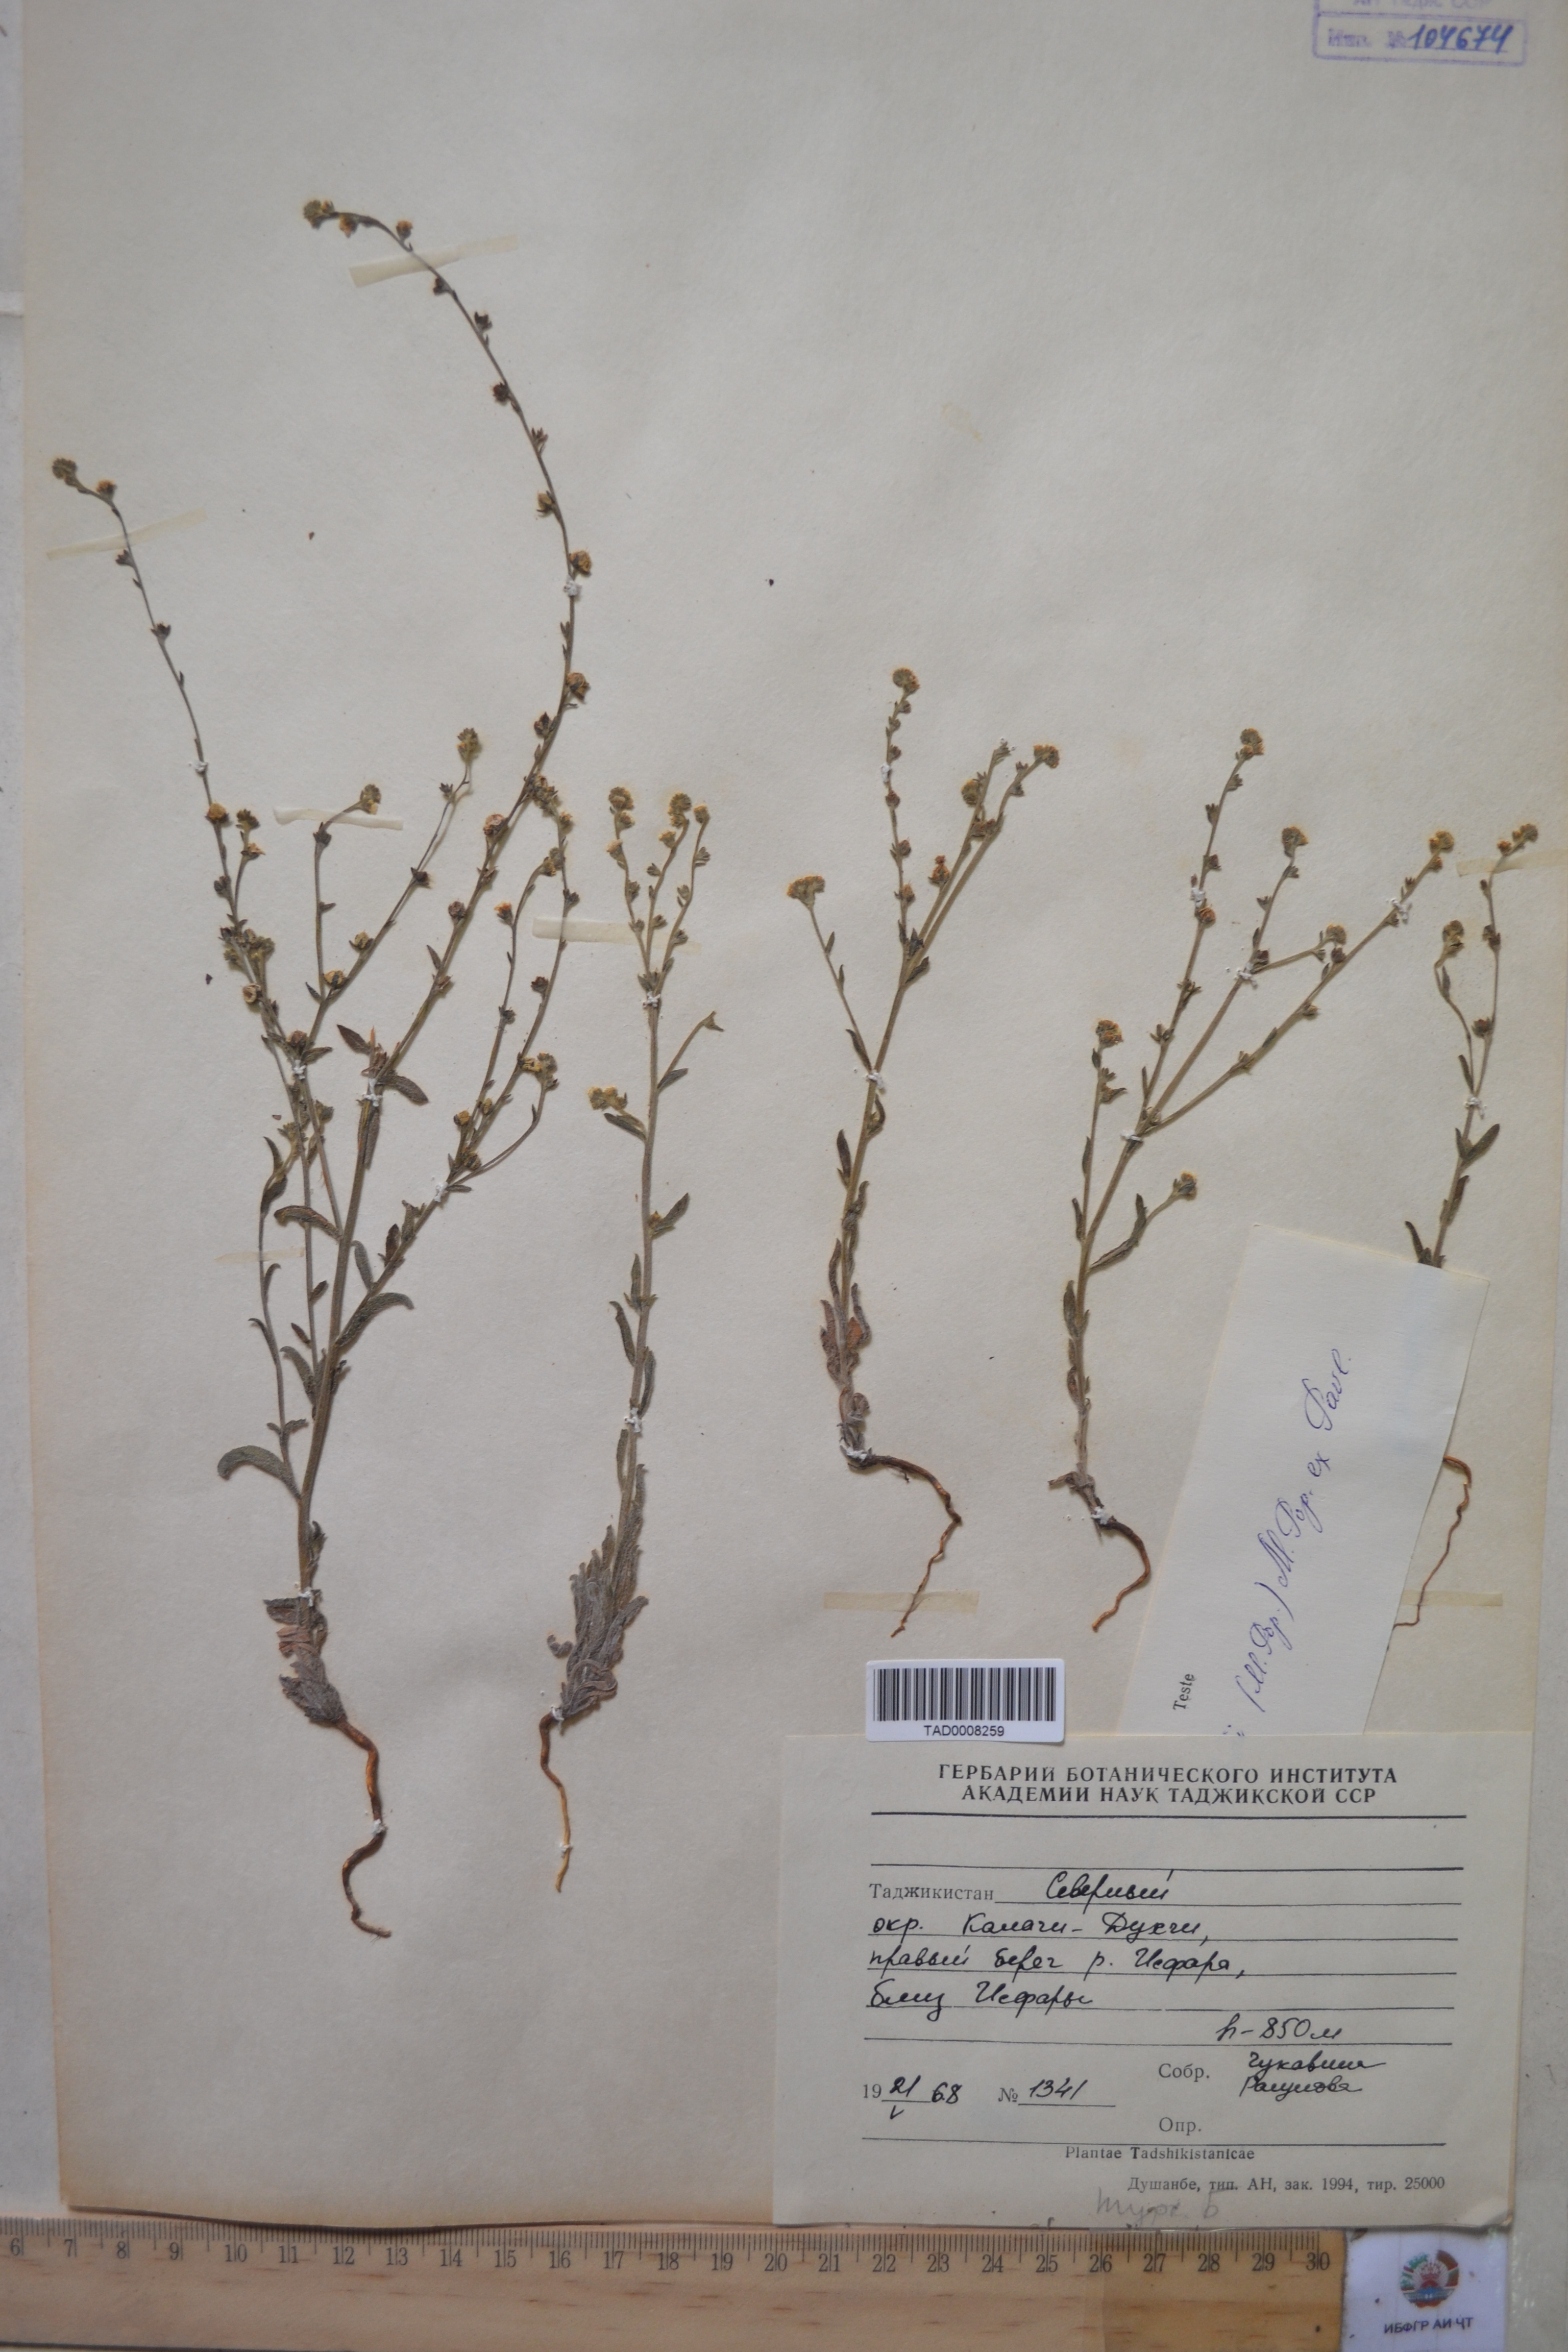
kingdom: Plantae
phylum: Tracheophyta
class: Magnoliopsida
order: Boraginales
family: Boraginaceae
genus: Rochelia
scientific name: Rochelia drobovii
